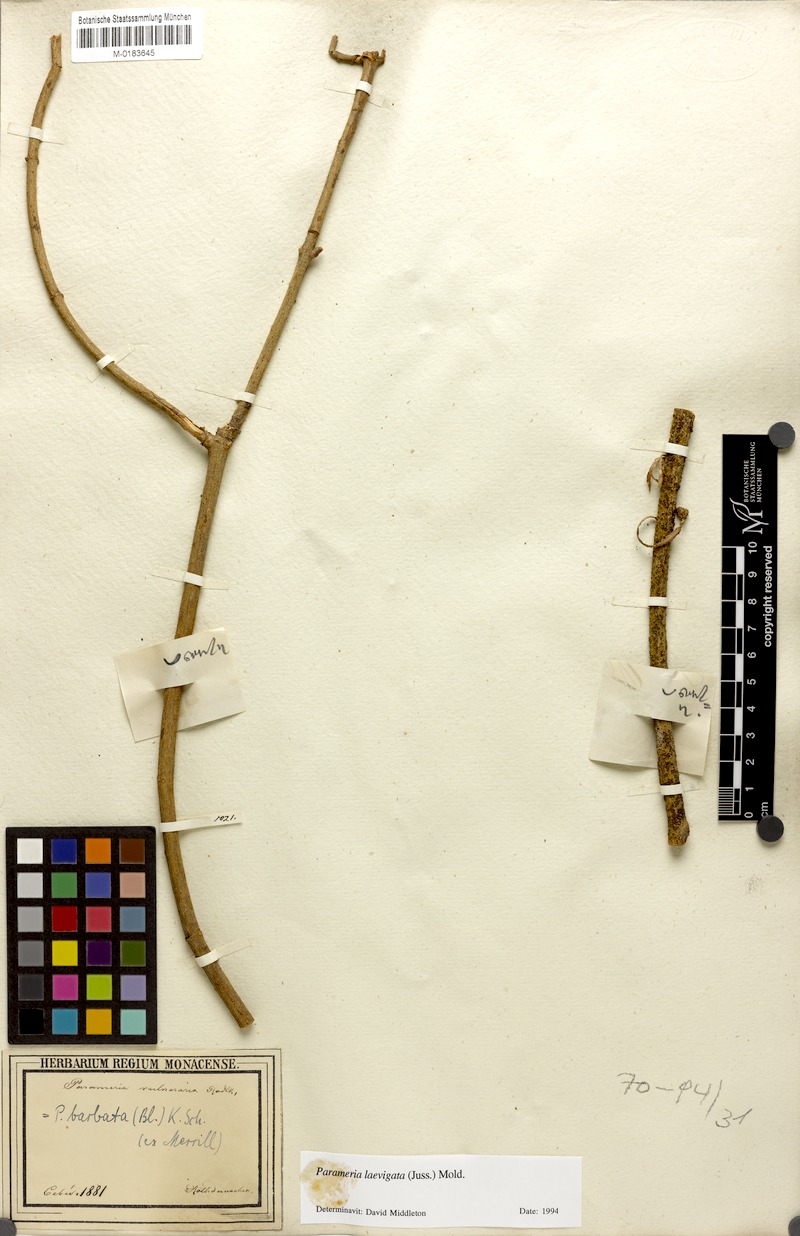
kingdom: Plantae
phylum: Tracheophyta
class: Magnoliopsida
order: Gentianales
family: Apocynaceae
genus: Urceola
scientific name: Urceola laevigata
